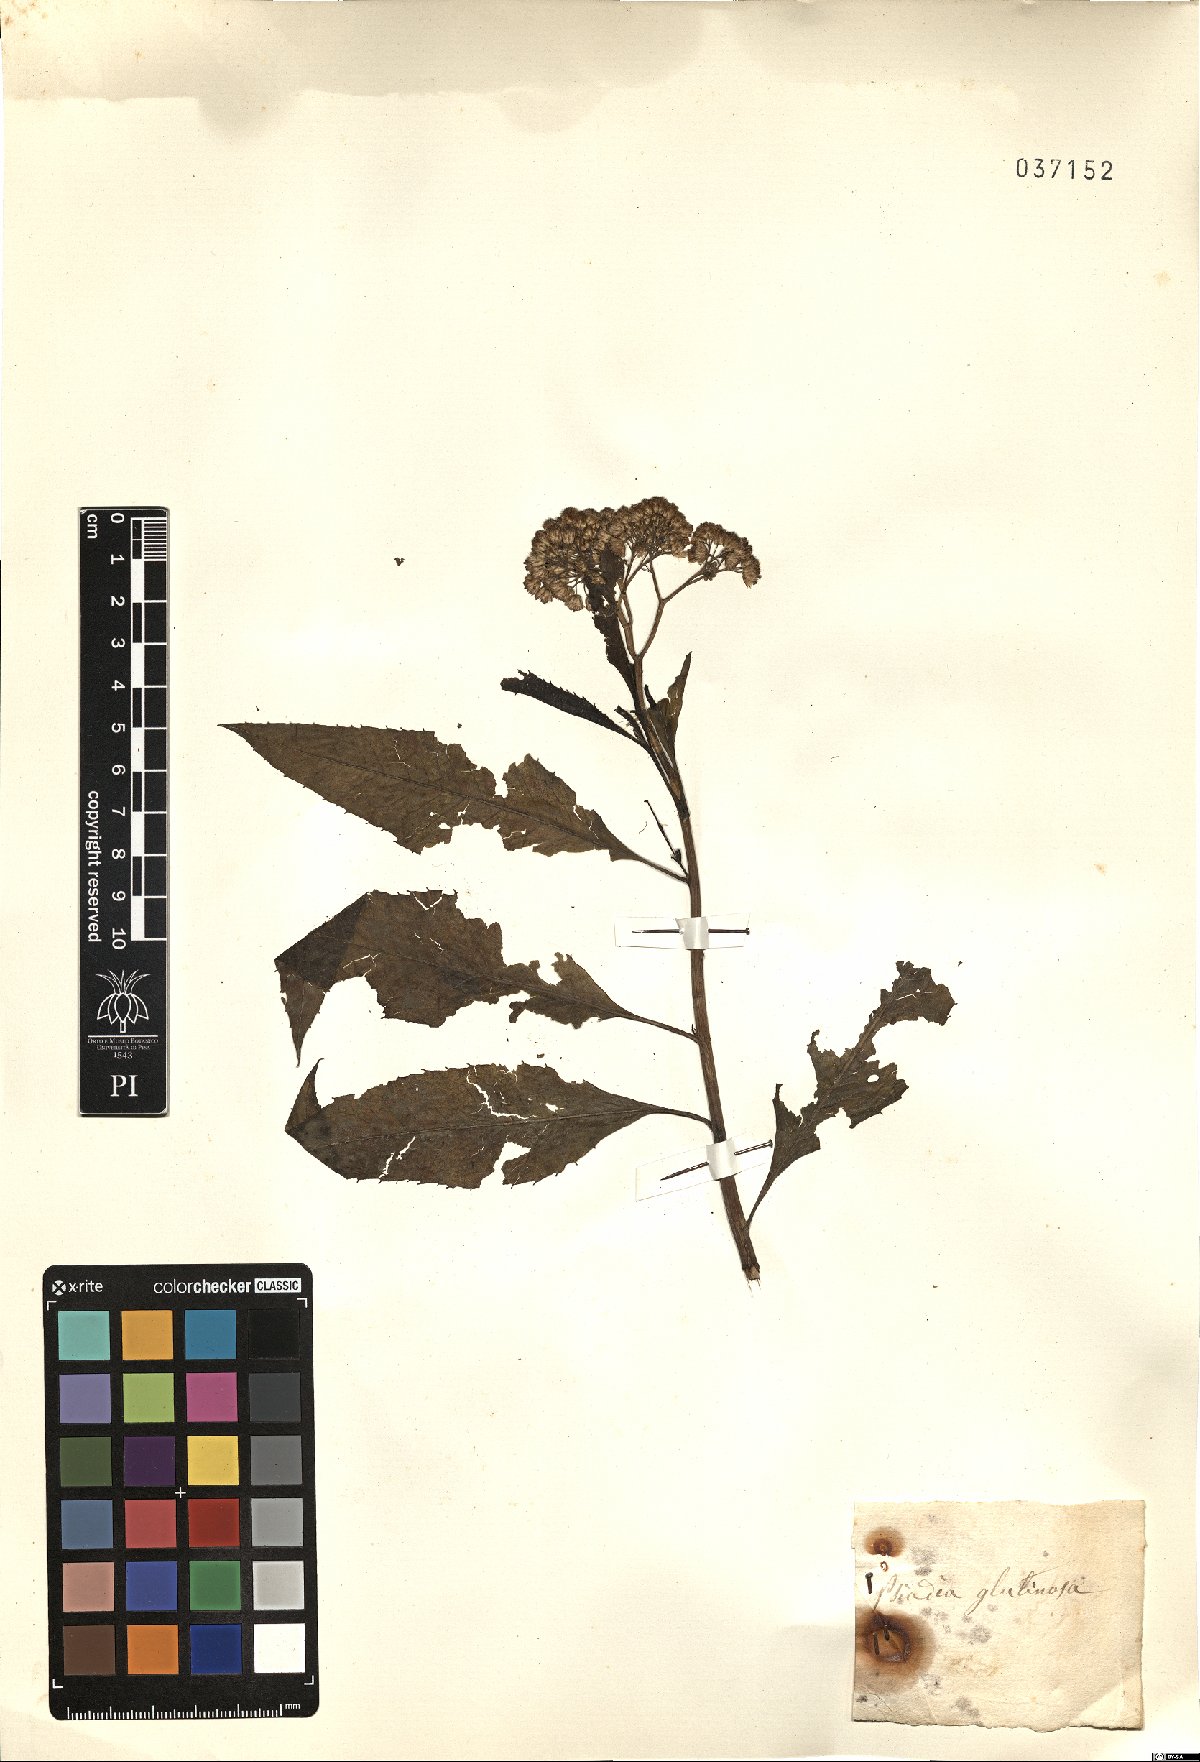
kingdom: Plantae
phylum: Tracheophyta
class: Magnoliopsida
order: Asterales
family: Asteraceae
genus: Psiadia
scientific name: Psiadia glutinosa
